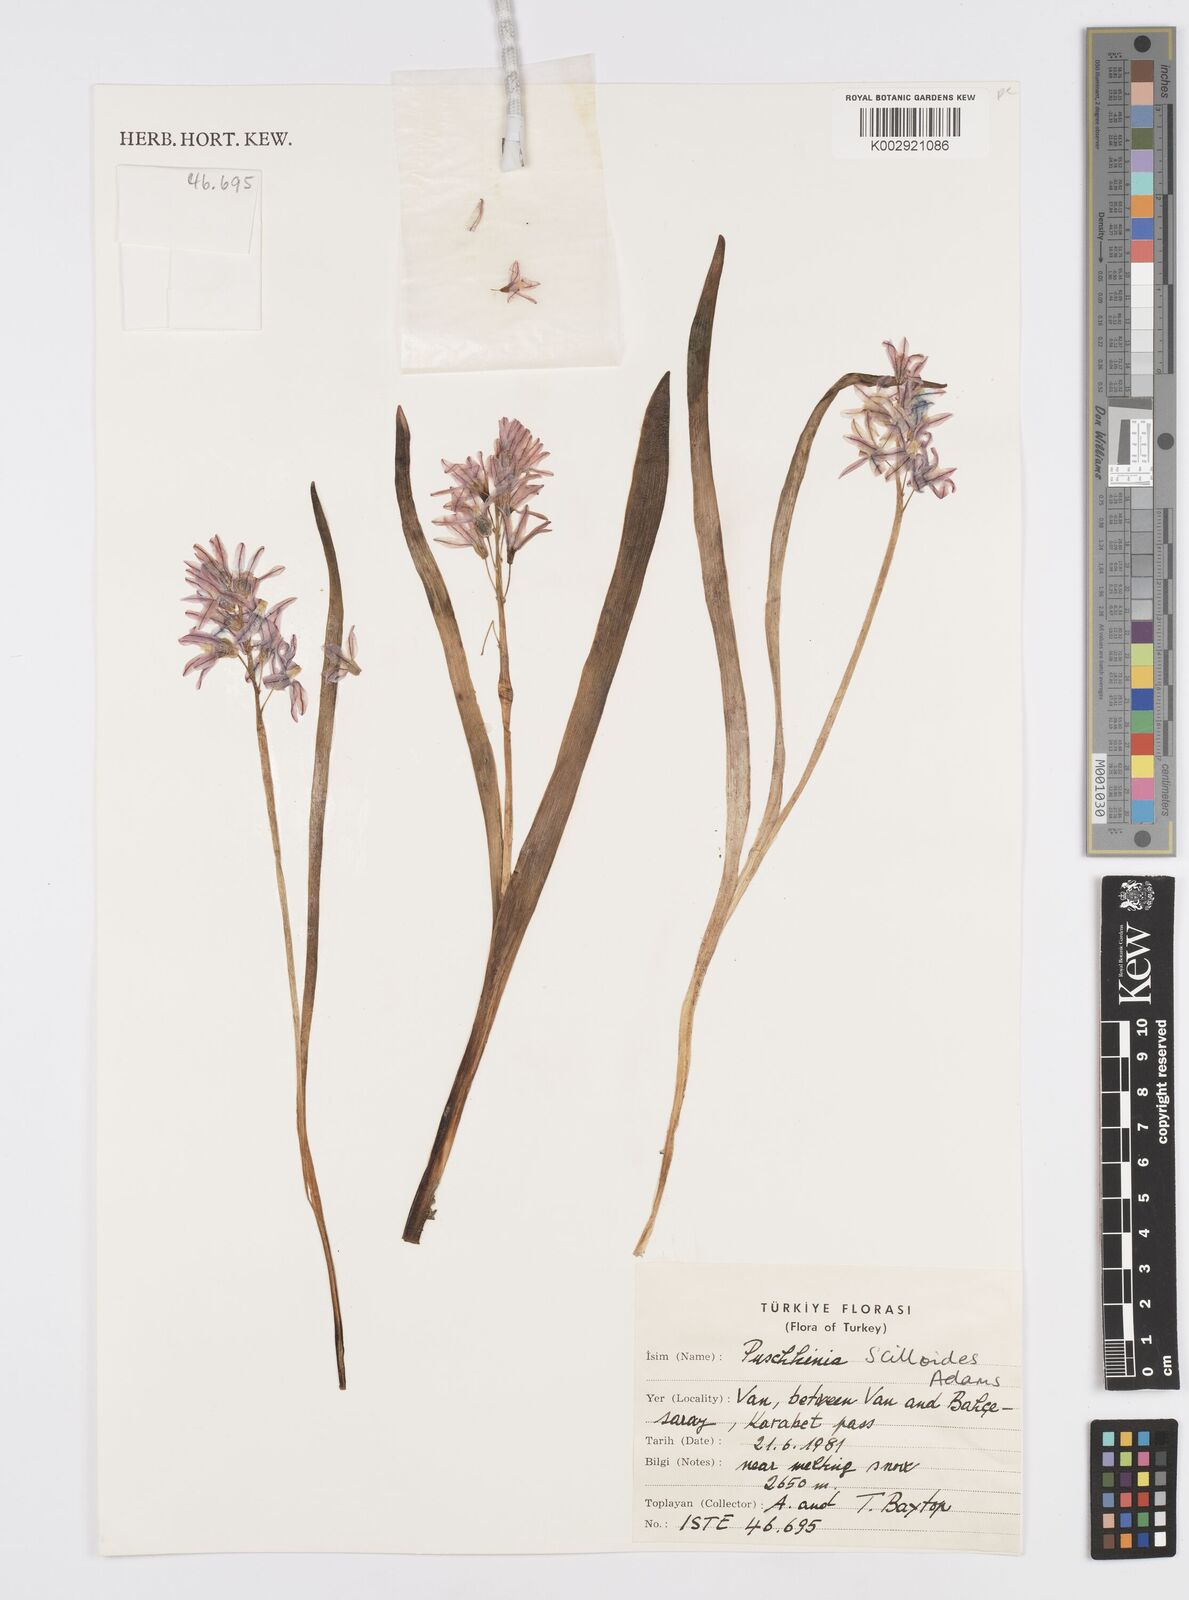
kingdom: Plantae
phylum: Tracheophyta
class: Liliopsida
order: Asparagales
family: Asparagaceae
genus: Puschkinia
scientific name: Puschkinia scilloides
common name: Striped squill
